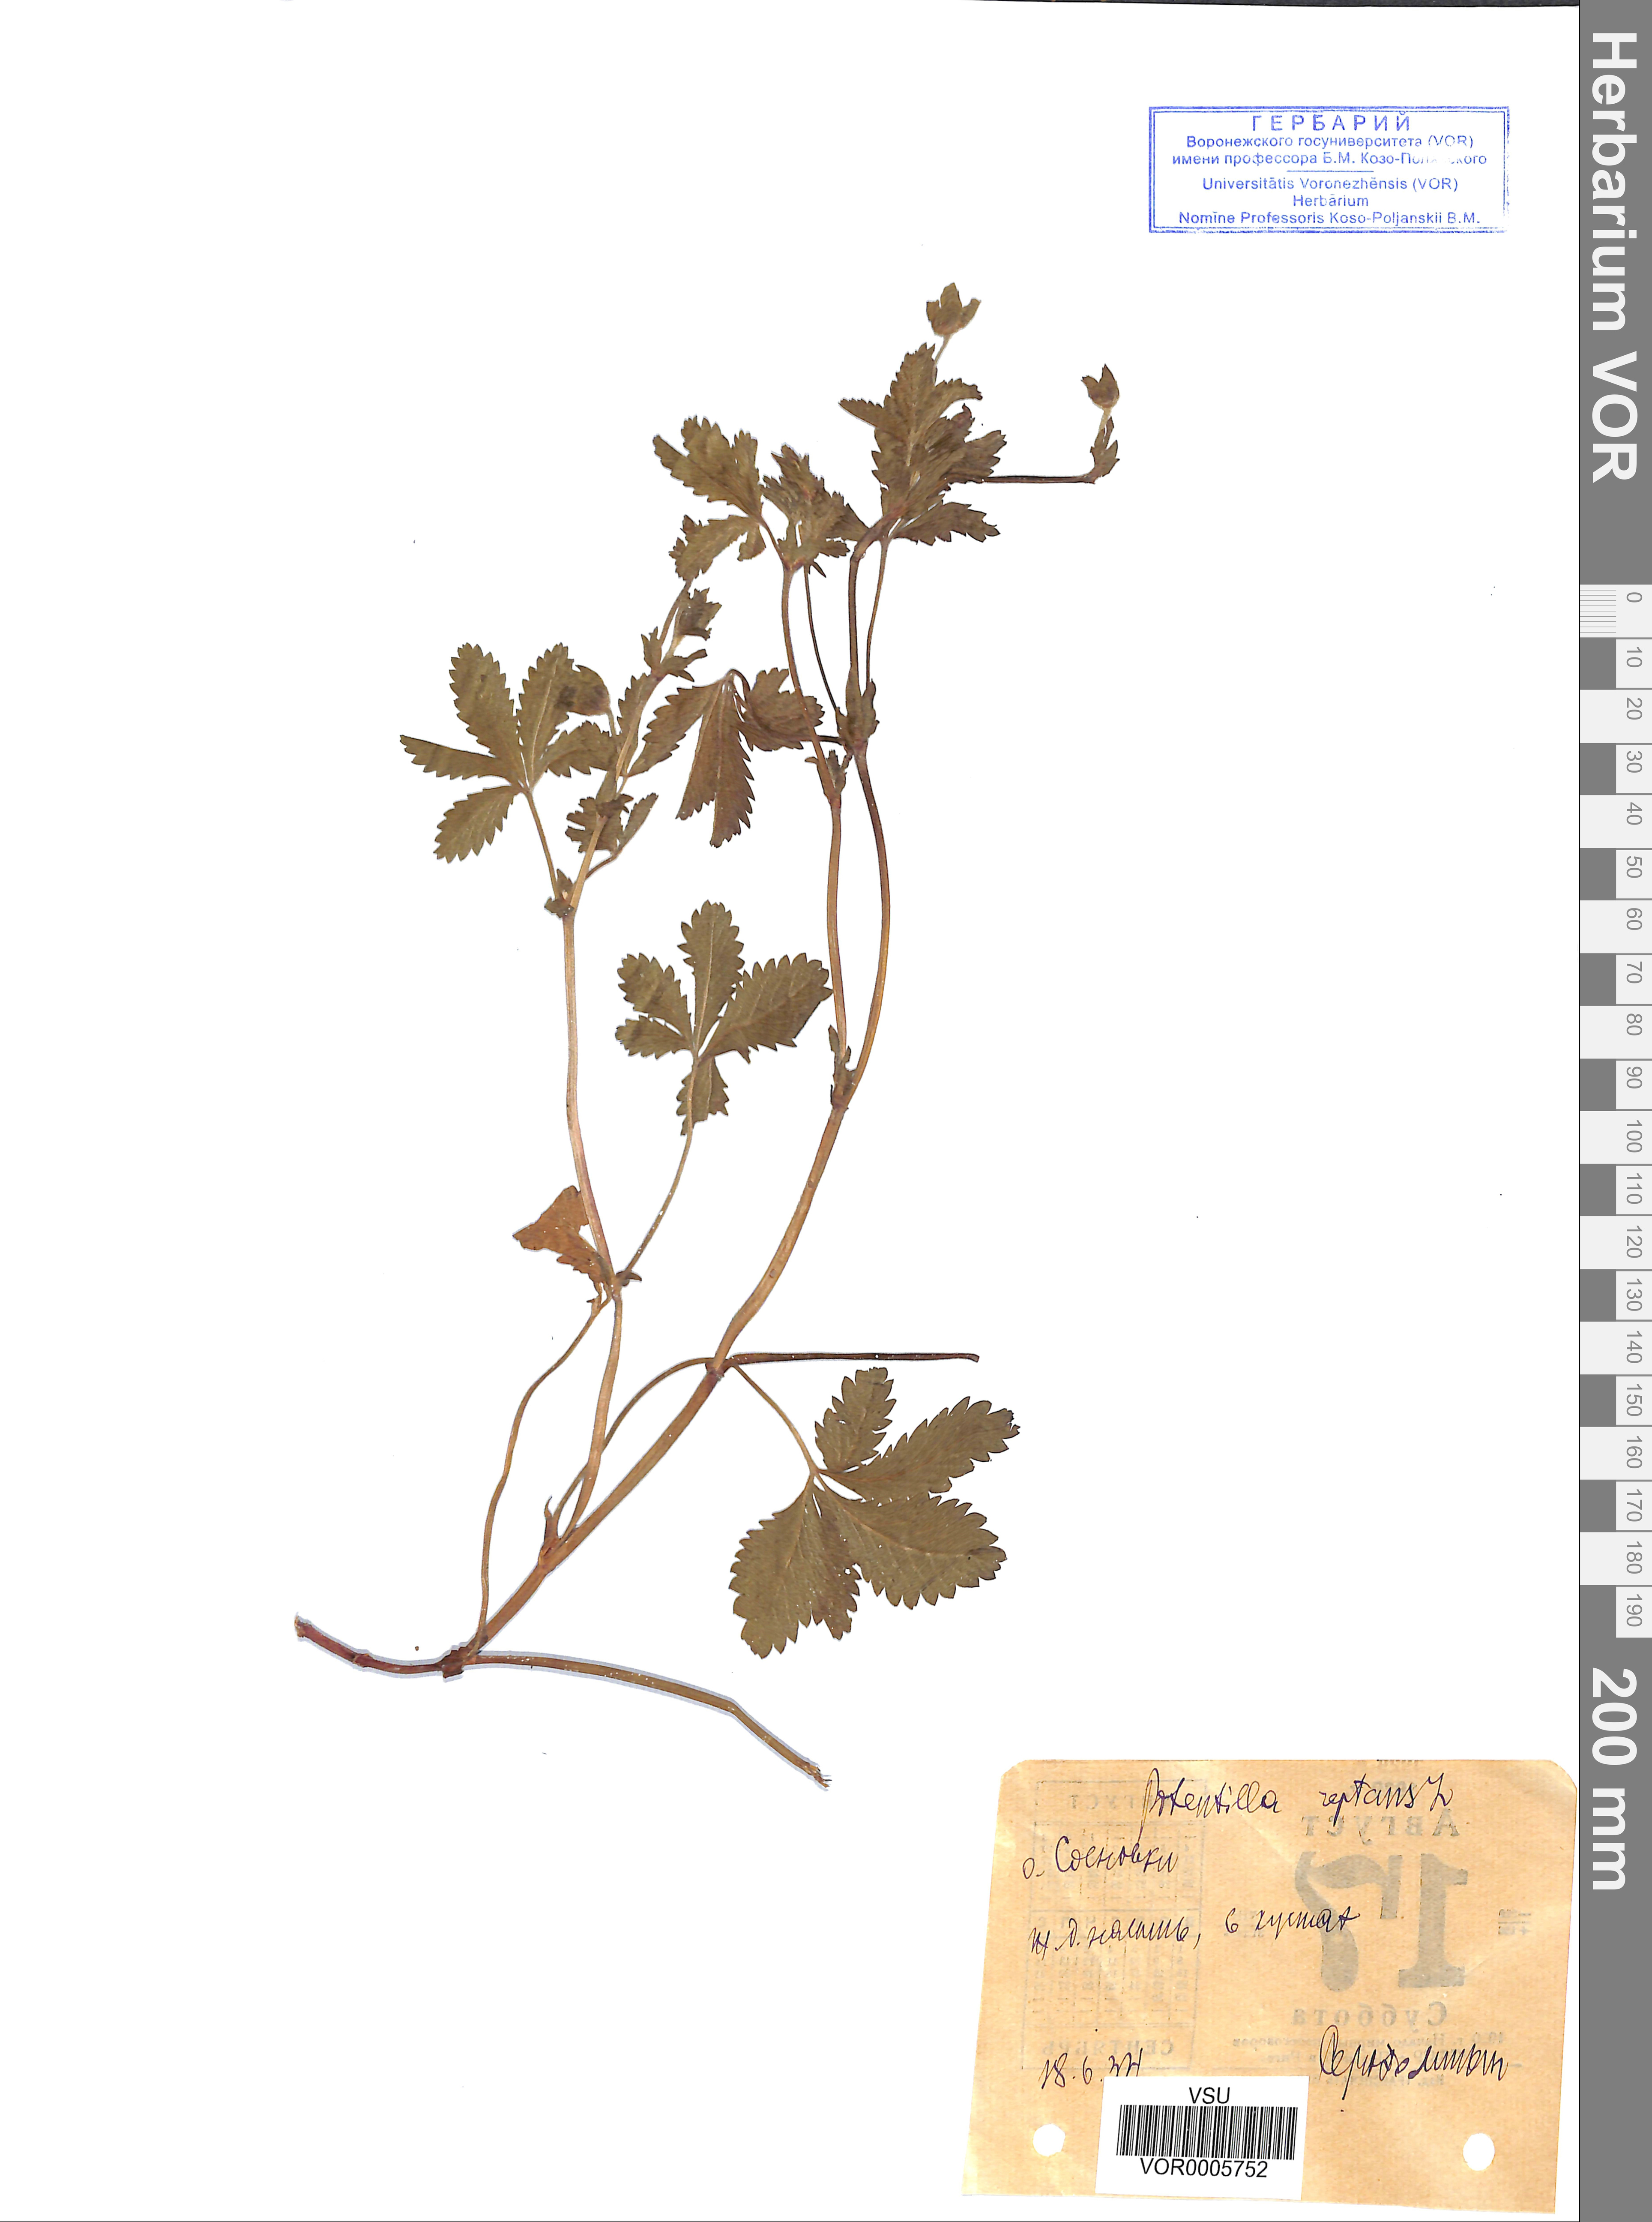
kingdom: Plantae
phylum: Tracheophyta
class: Magnoliopsida
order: Rosales
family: Rosaceae
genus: Potentilla
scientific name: Potentilla reptans
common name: Creeping cinquefoil
